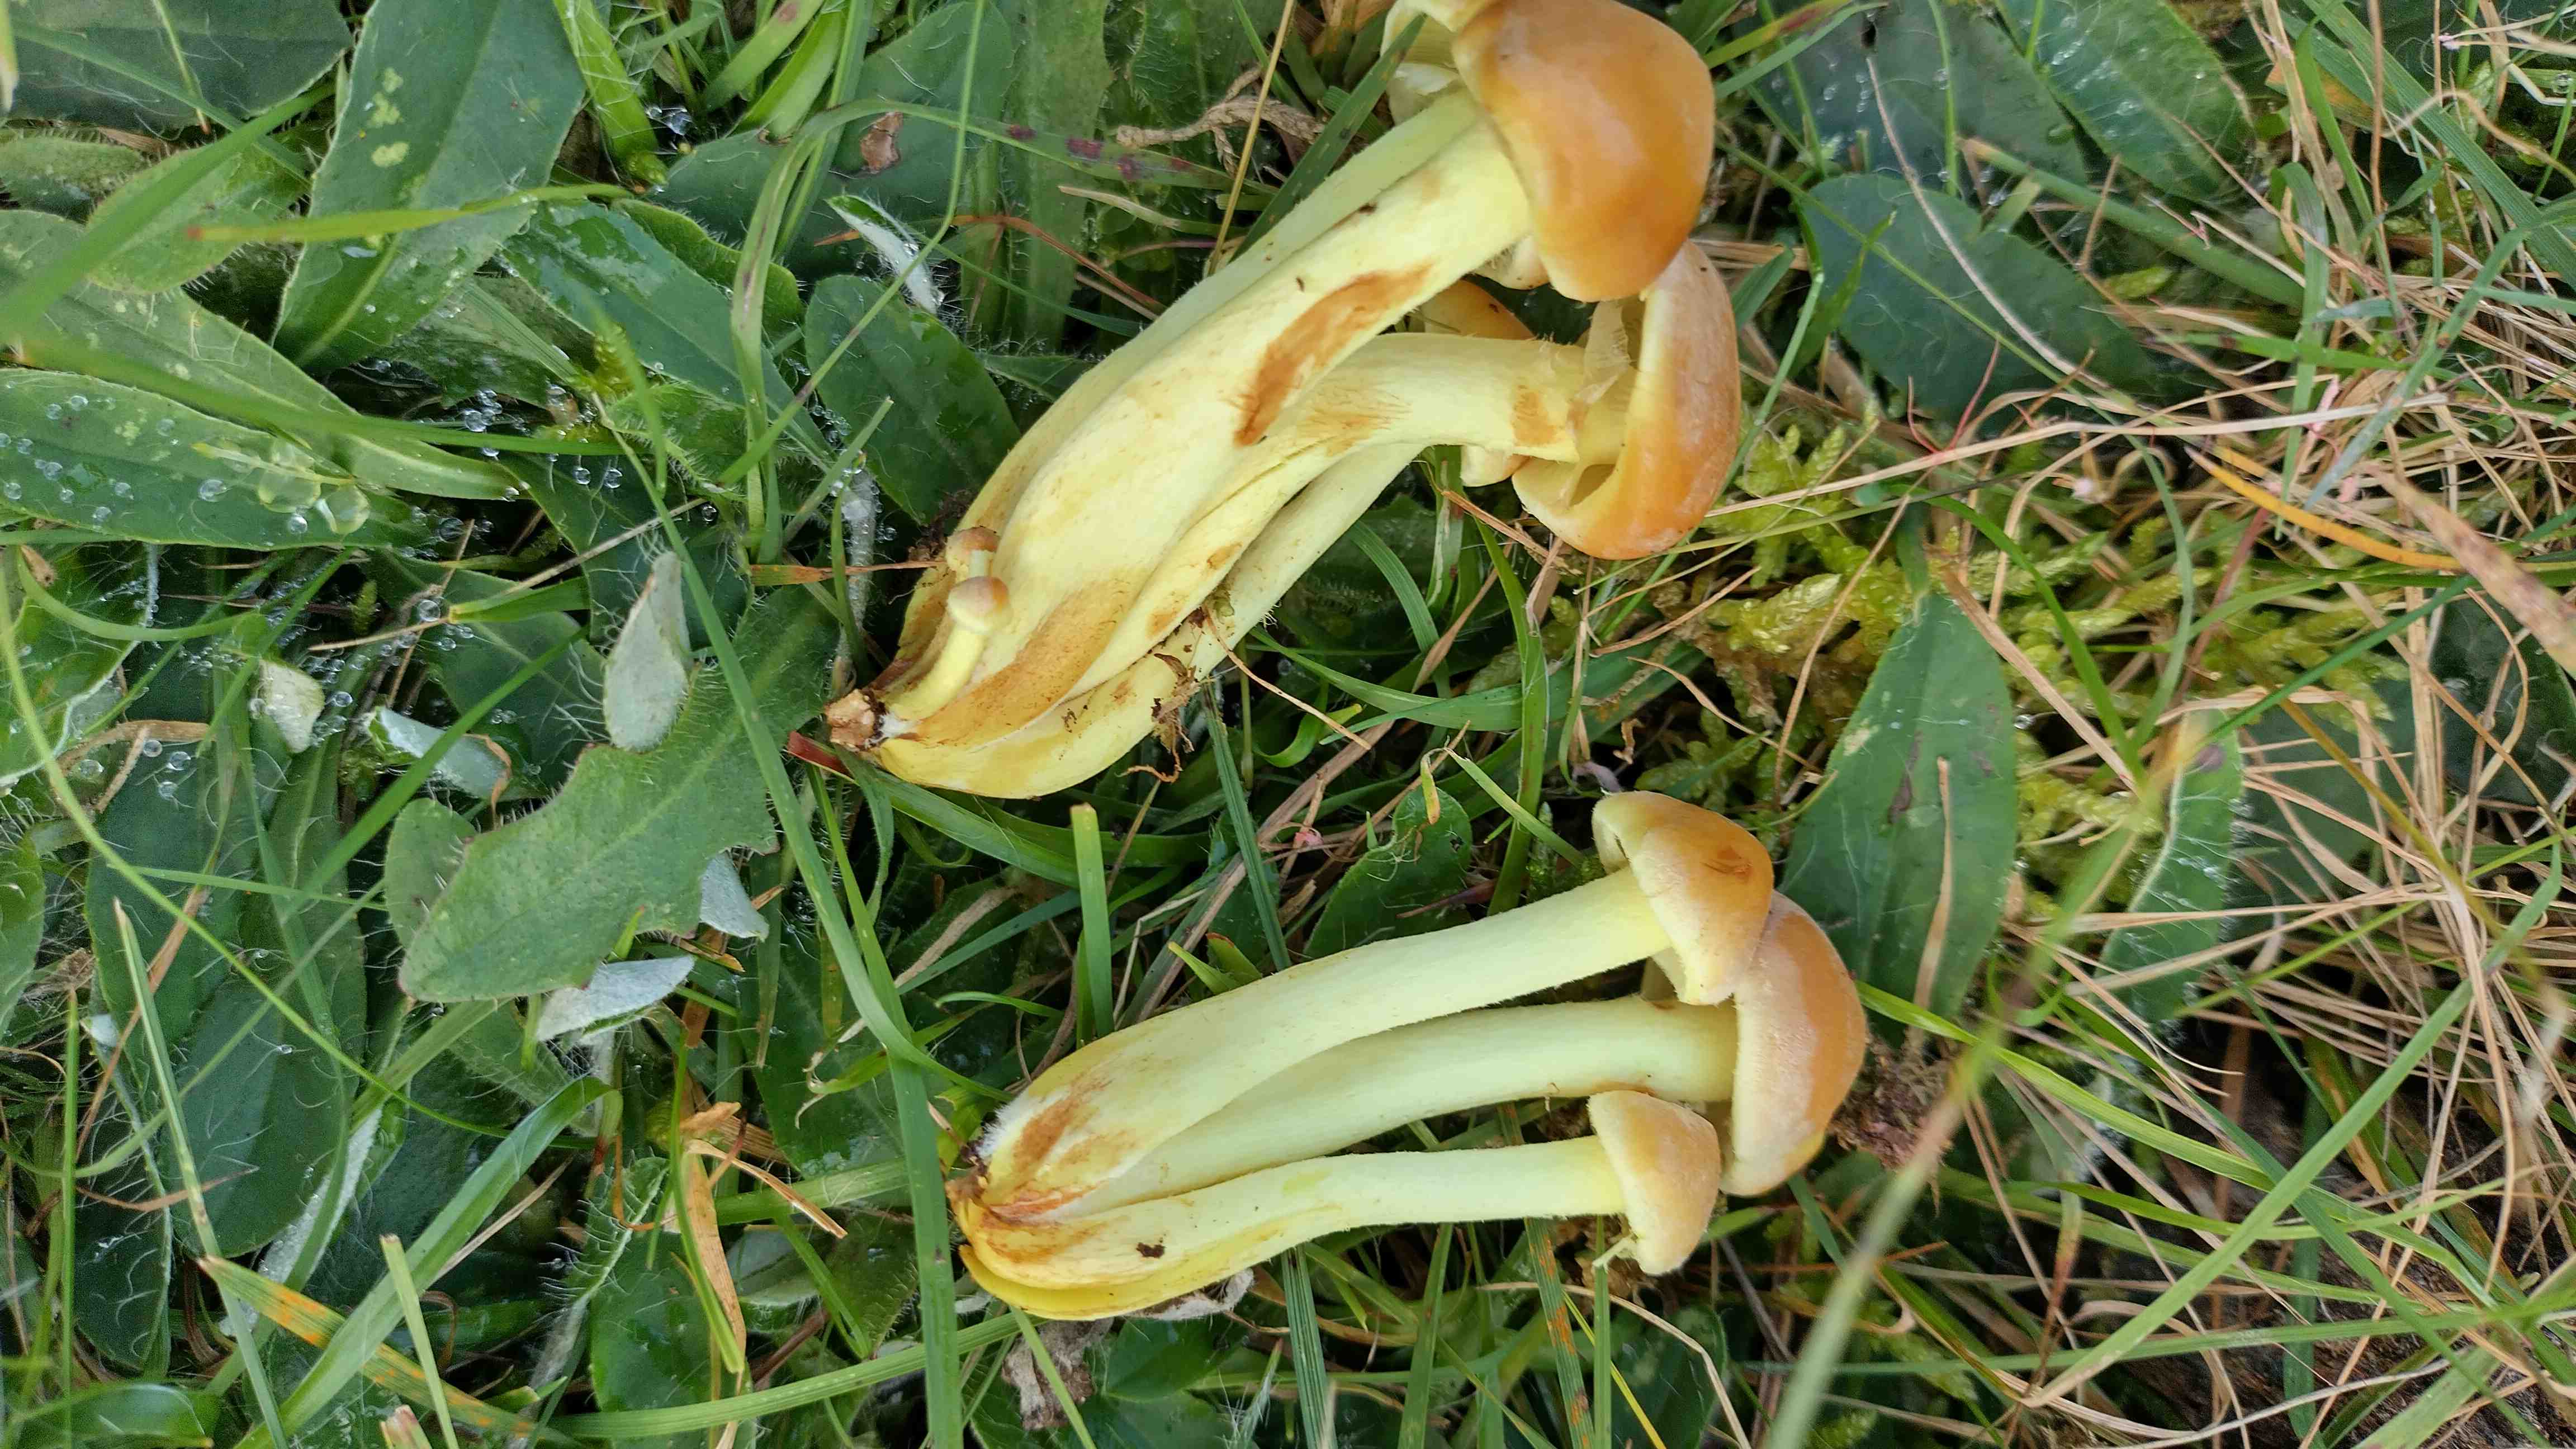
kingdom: Fungi
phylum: Basidiomycota
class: Agaricomycetes
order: Agaricales
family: Strophariaceae
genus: Hypholoma
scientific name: Hypholoma fasciculare
